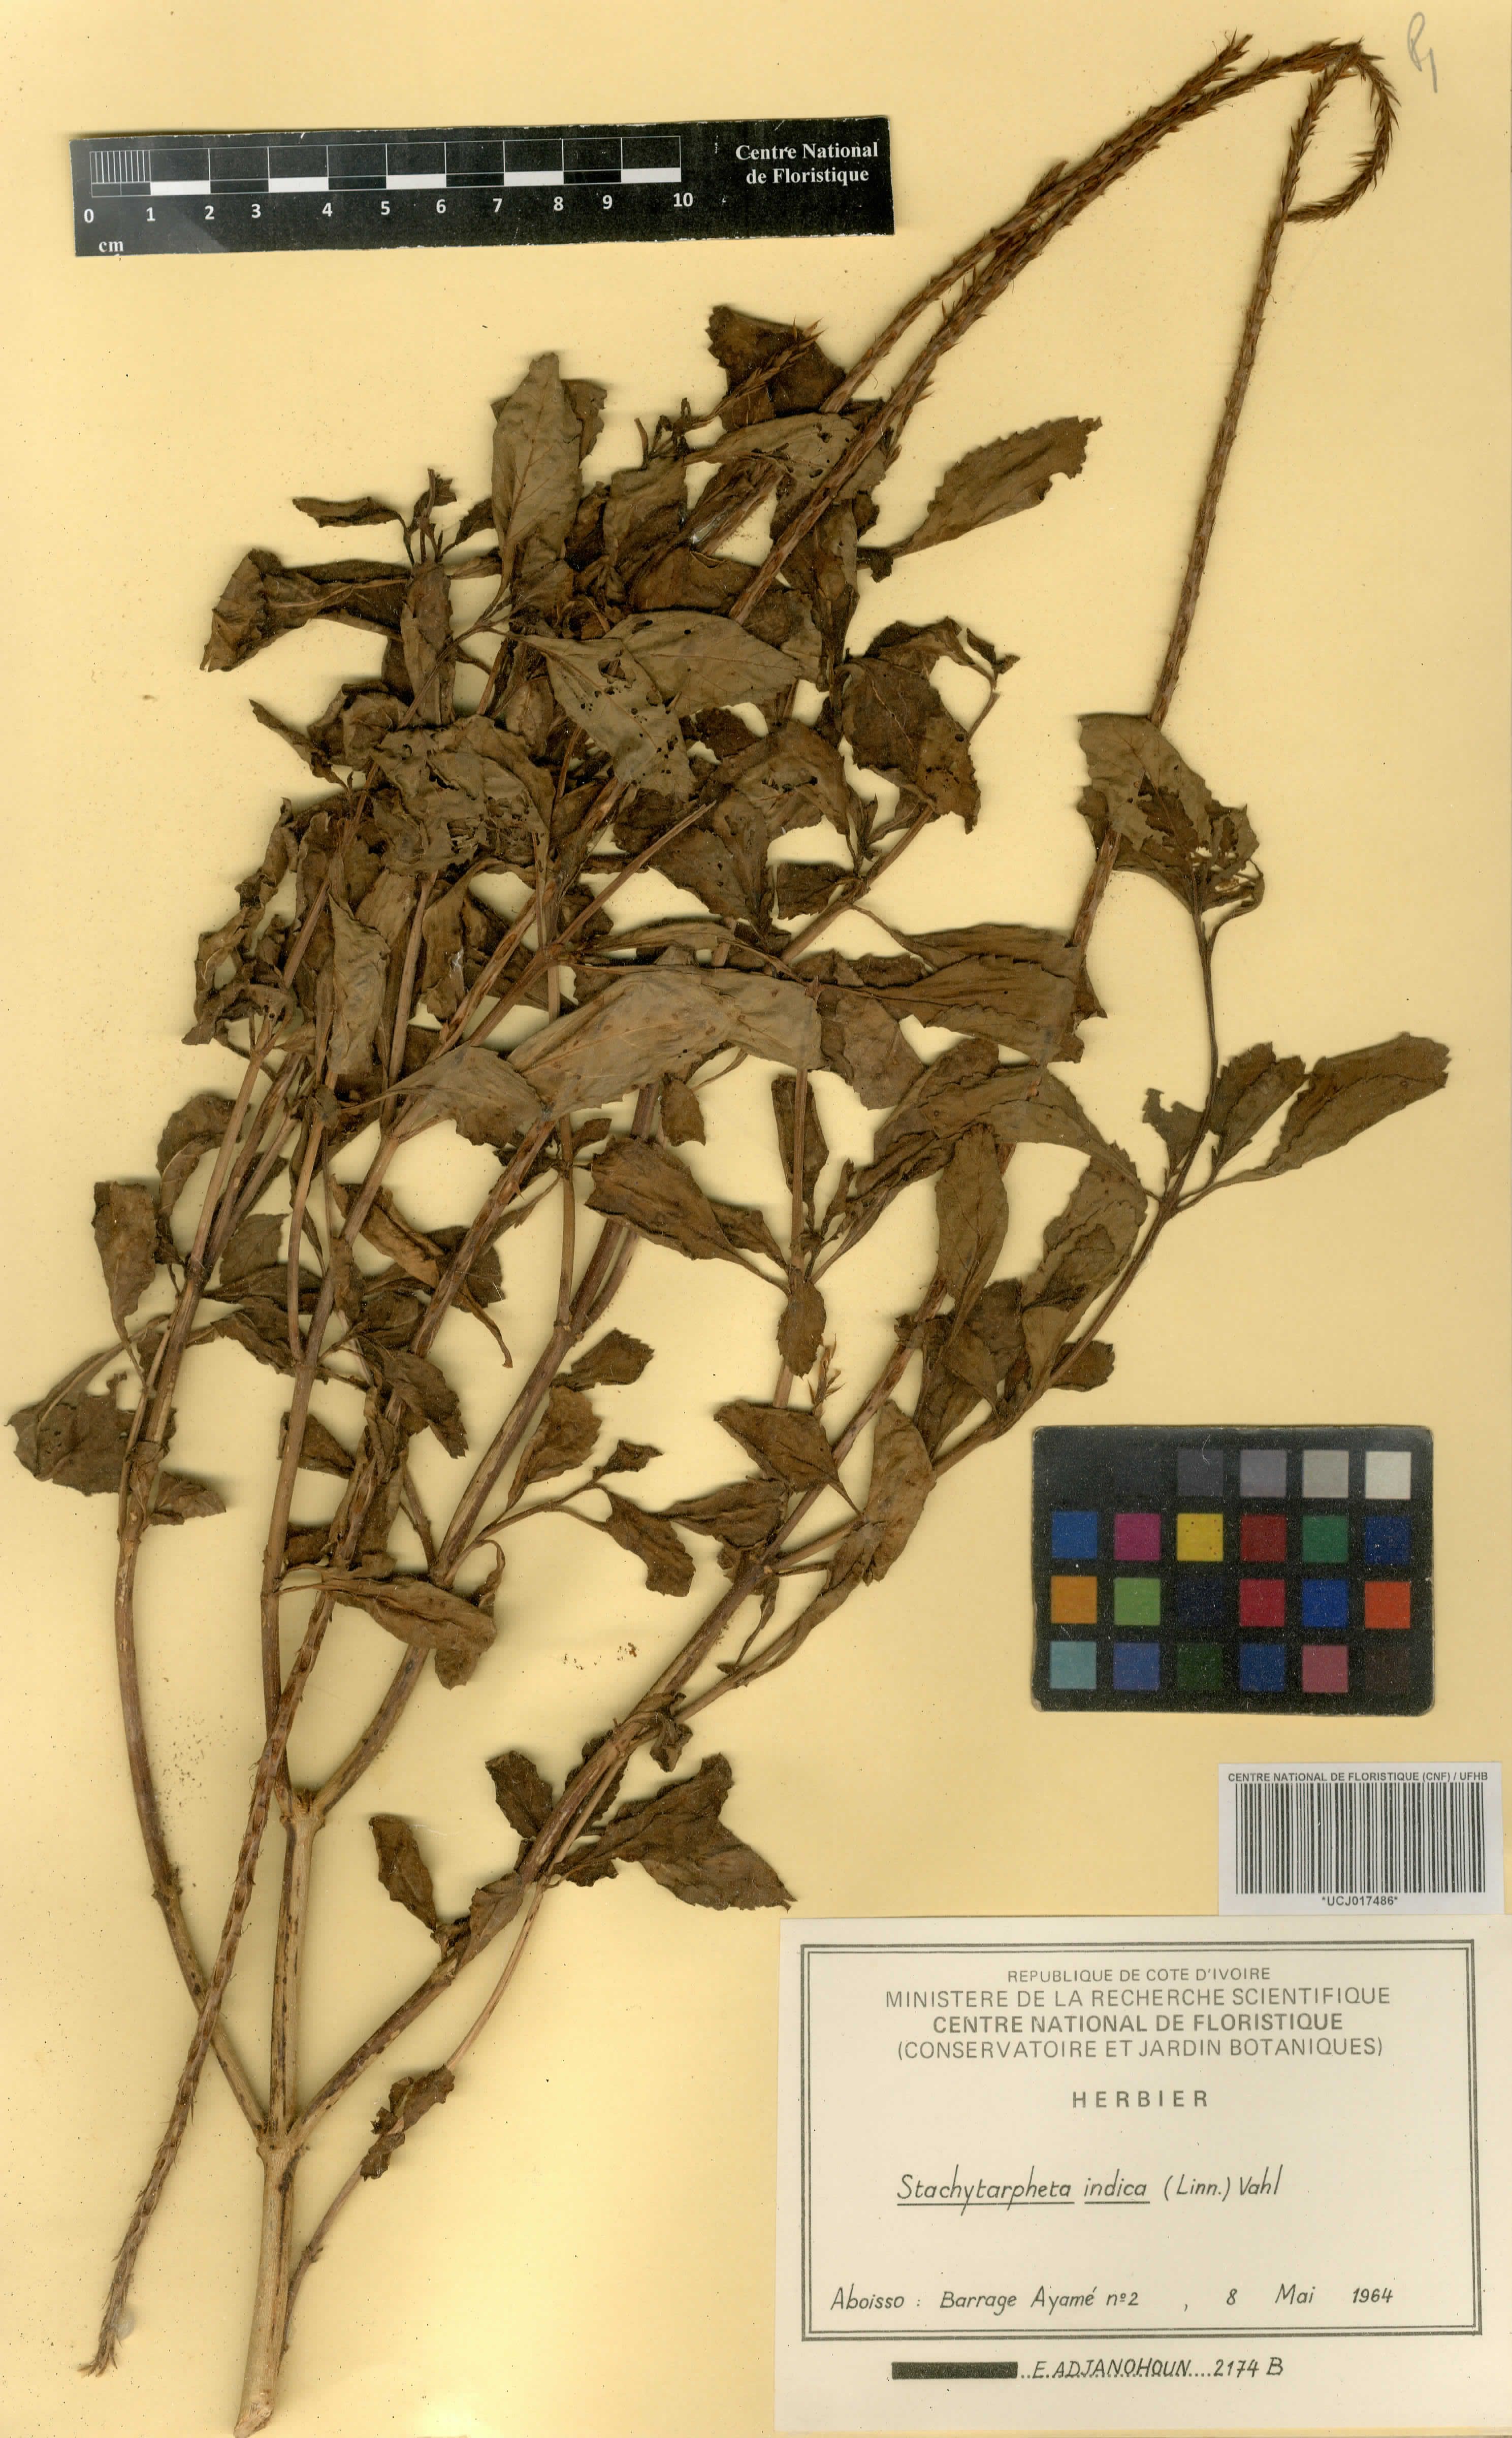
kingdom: Plantae
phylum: Tracheophyta
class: Magnoliopsida
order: Lamiales
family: Verbenaceae
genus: Stachytarpheta
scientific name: Stachytarpheta indica
